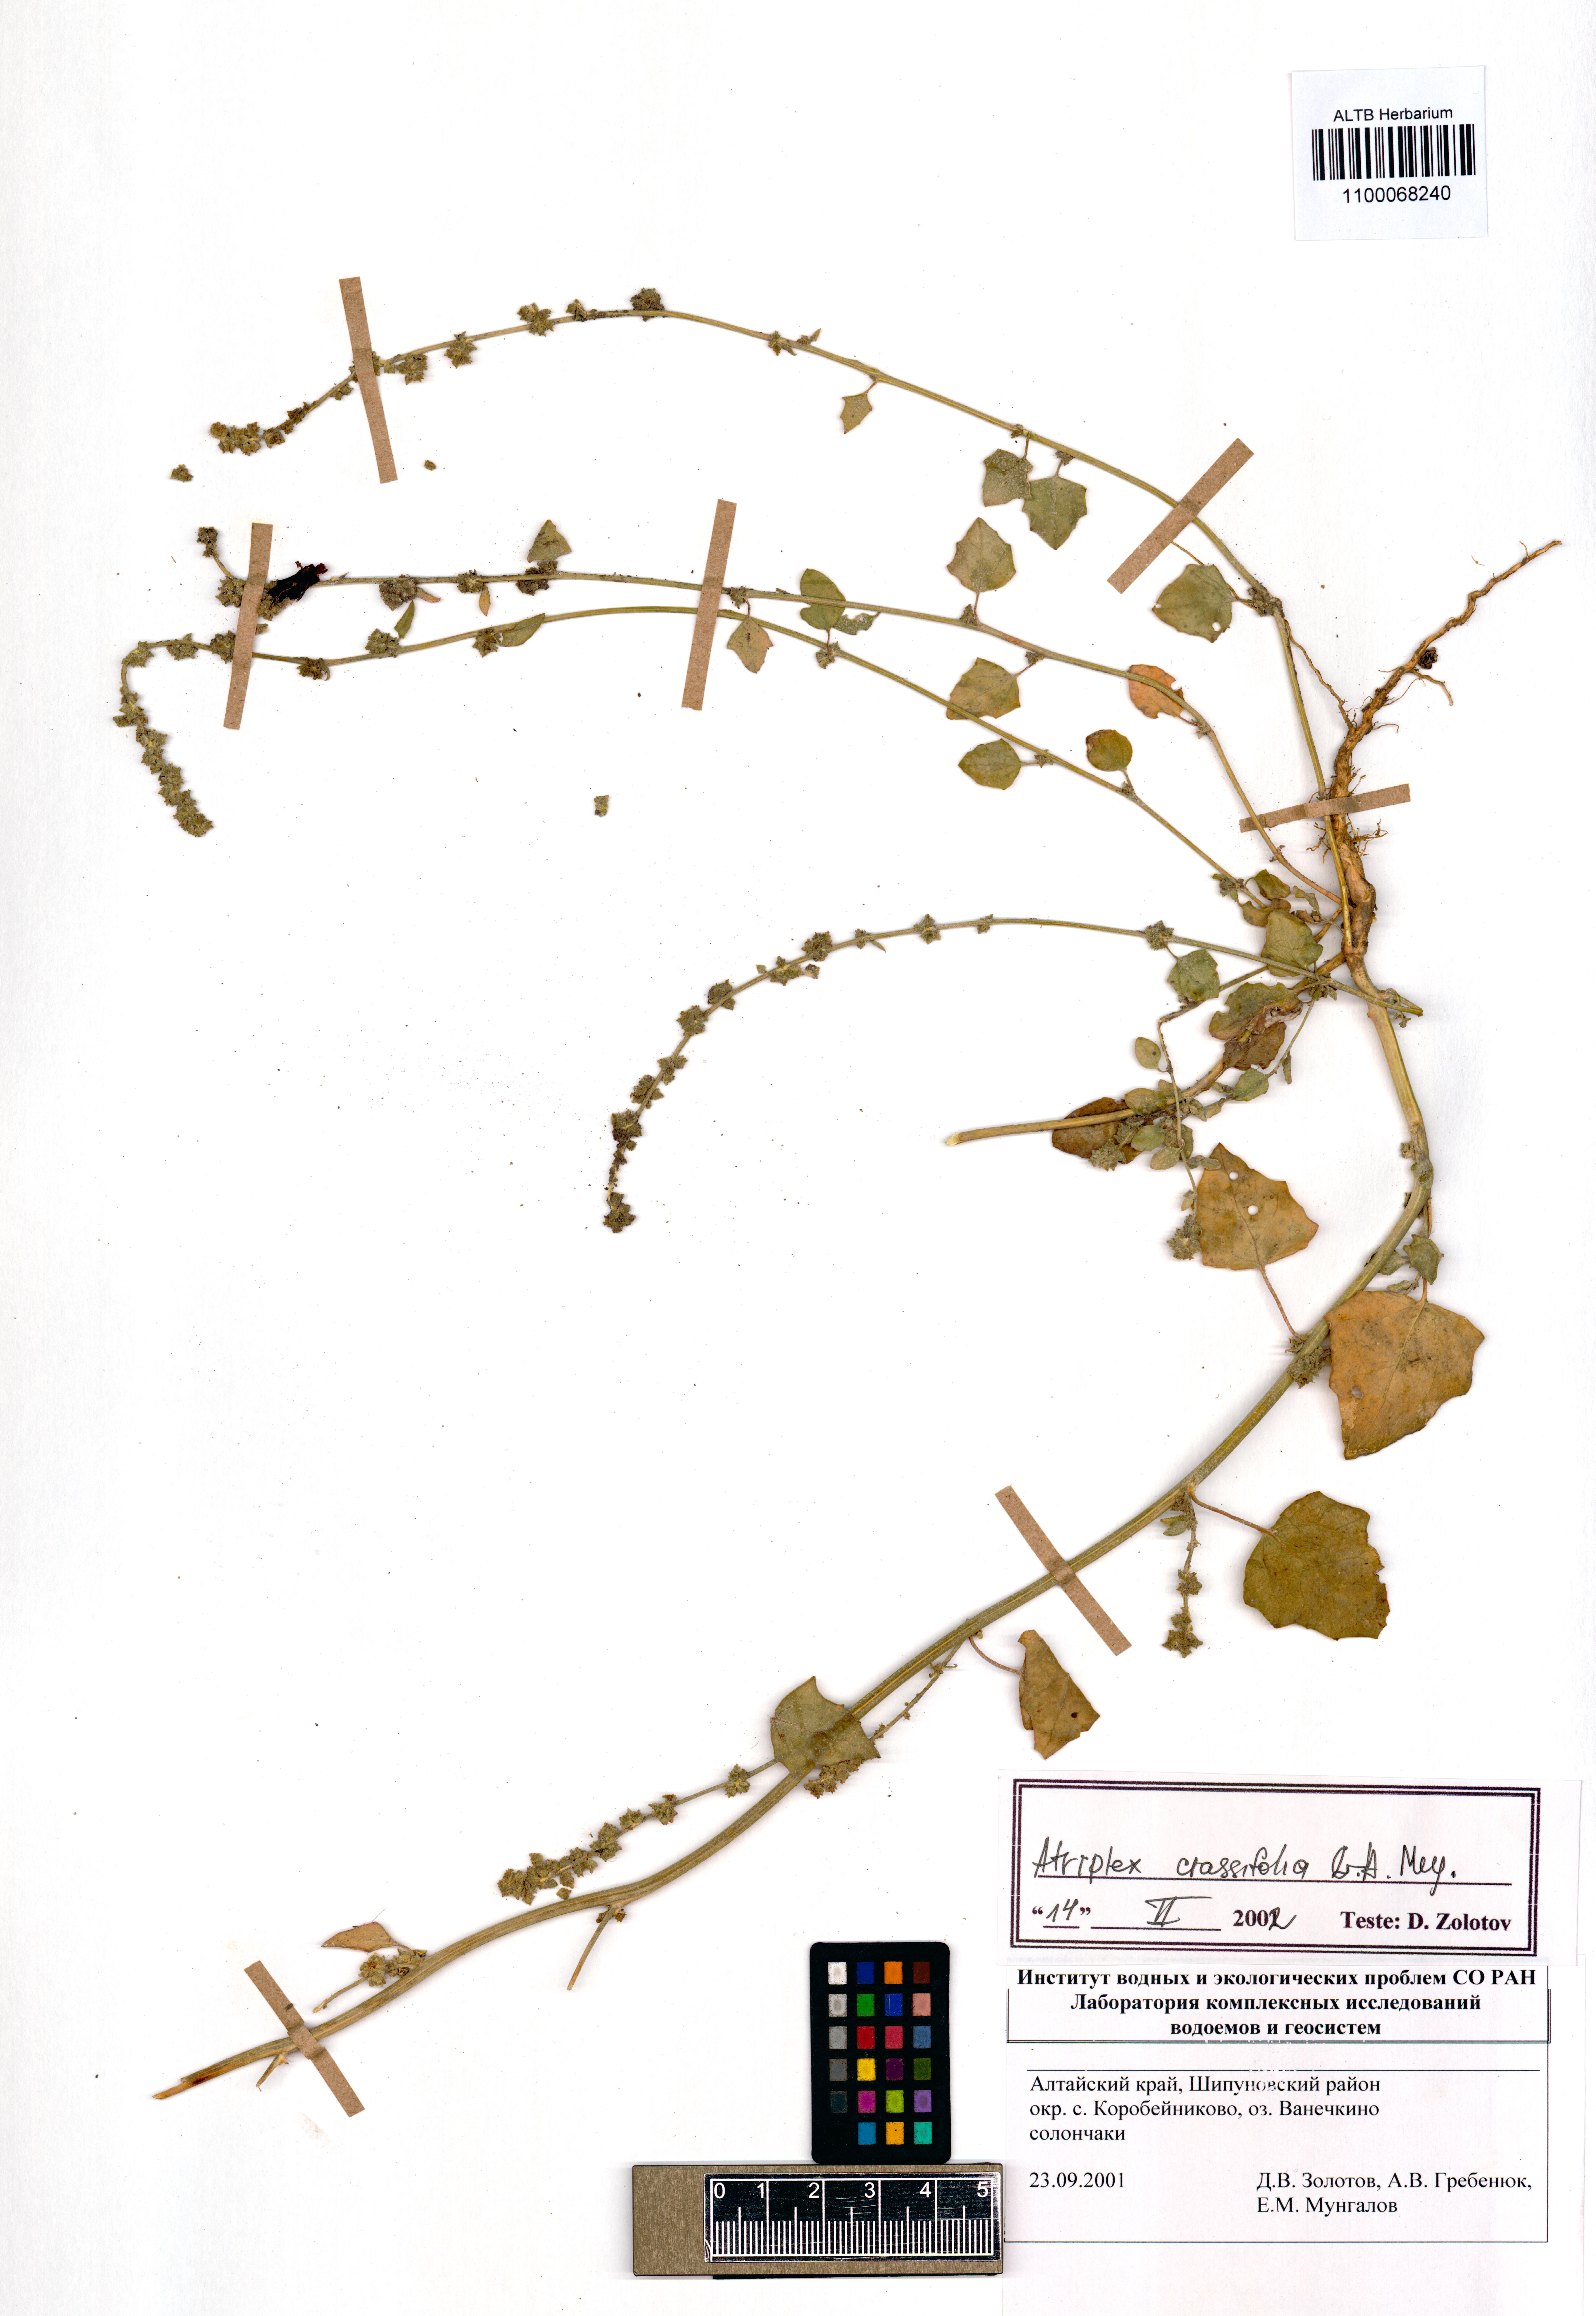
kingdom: Plantae
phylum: Tracheophyta
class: Magnoliopsida
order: Caryophyllales
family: Amaranthaceae
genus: Atriplex
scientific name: Atriplex crassifolia
